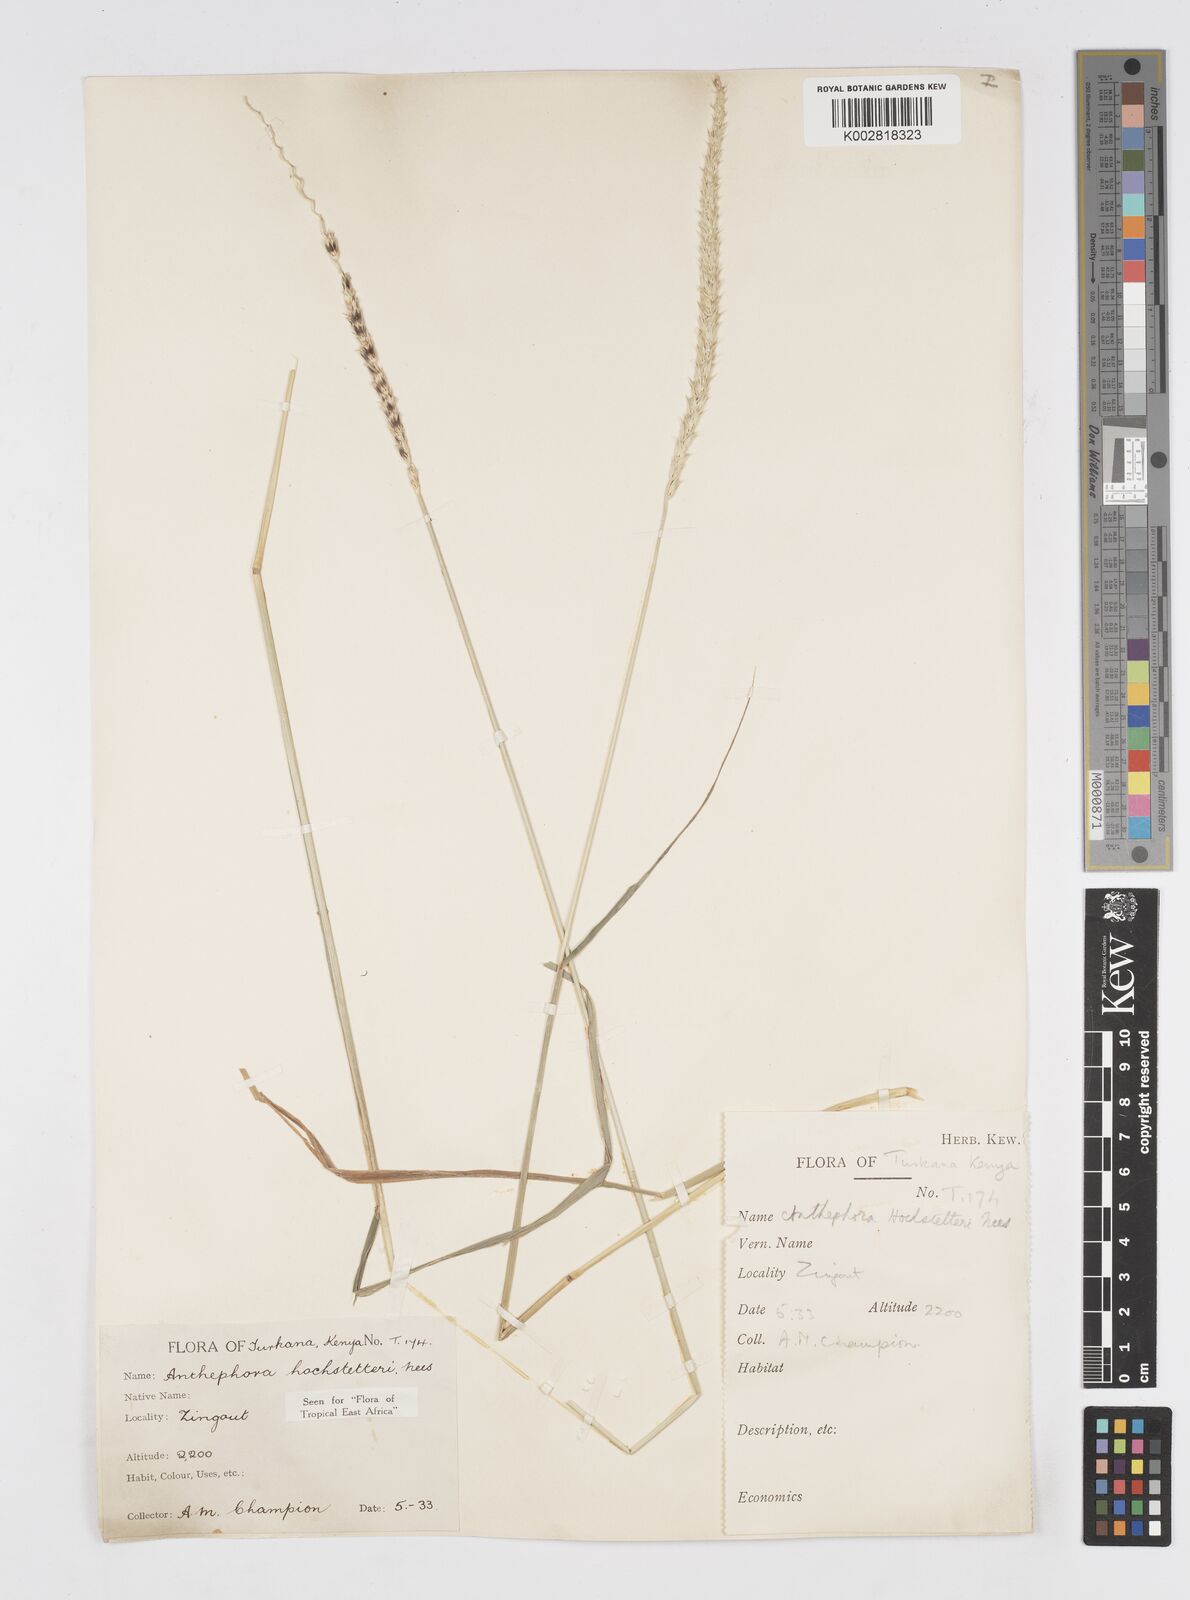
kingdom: Plantae
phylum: Tracheophyta
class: Liliopsida
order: Poales
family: Poaceae
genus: Anthephora
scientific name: Anthephora pubescens
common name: Wool grass
